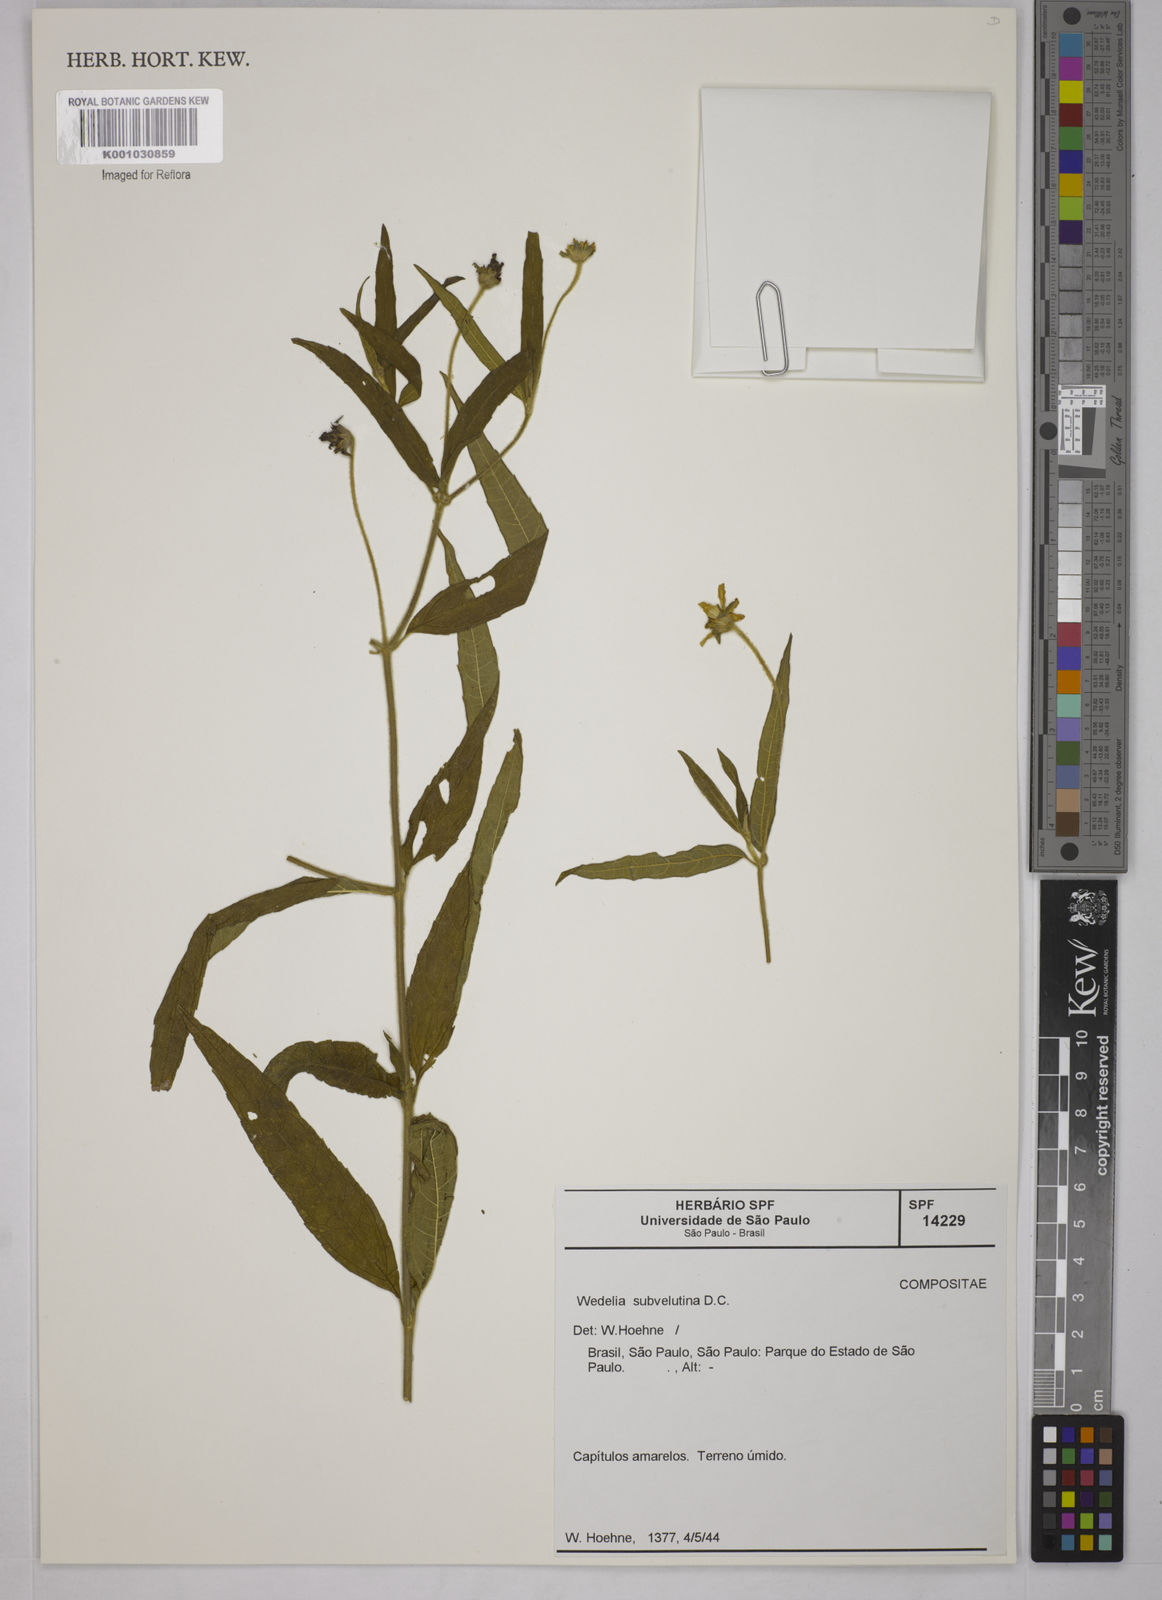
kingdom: Plantae
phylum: Tracheophyta
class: Magnoliopsida
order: Asterales
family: Asteraceae
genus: Wedelia
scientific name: Wedelia subvelutina
